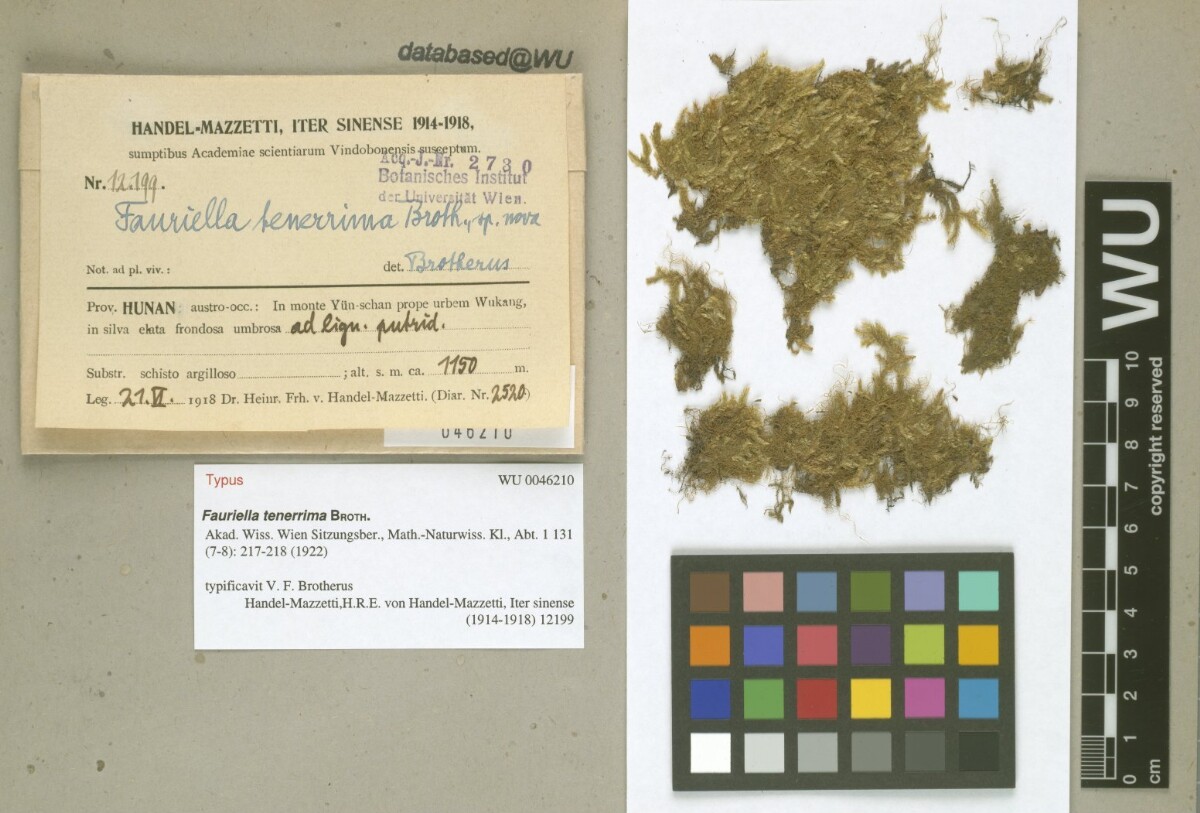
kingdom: Plantae
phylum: Bryophyta
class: Bryopsida
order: Hypnales
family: Thuidiaceae
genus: Fauriella
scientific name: Fauriella tenerrima
